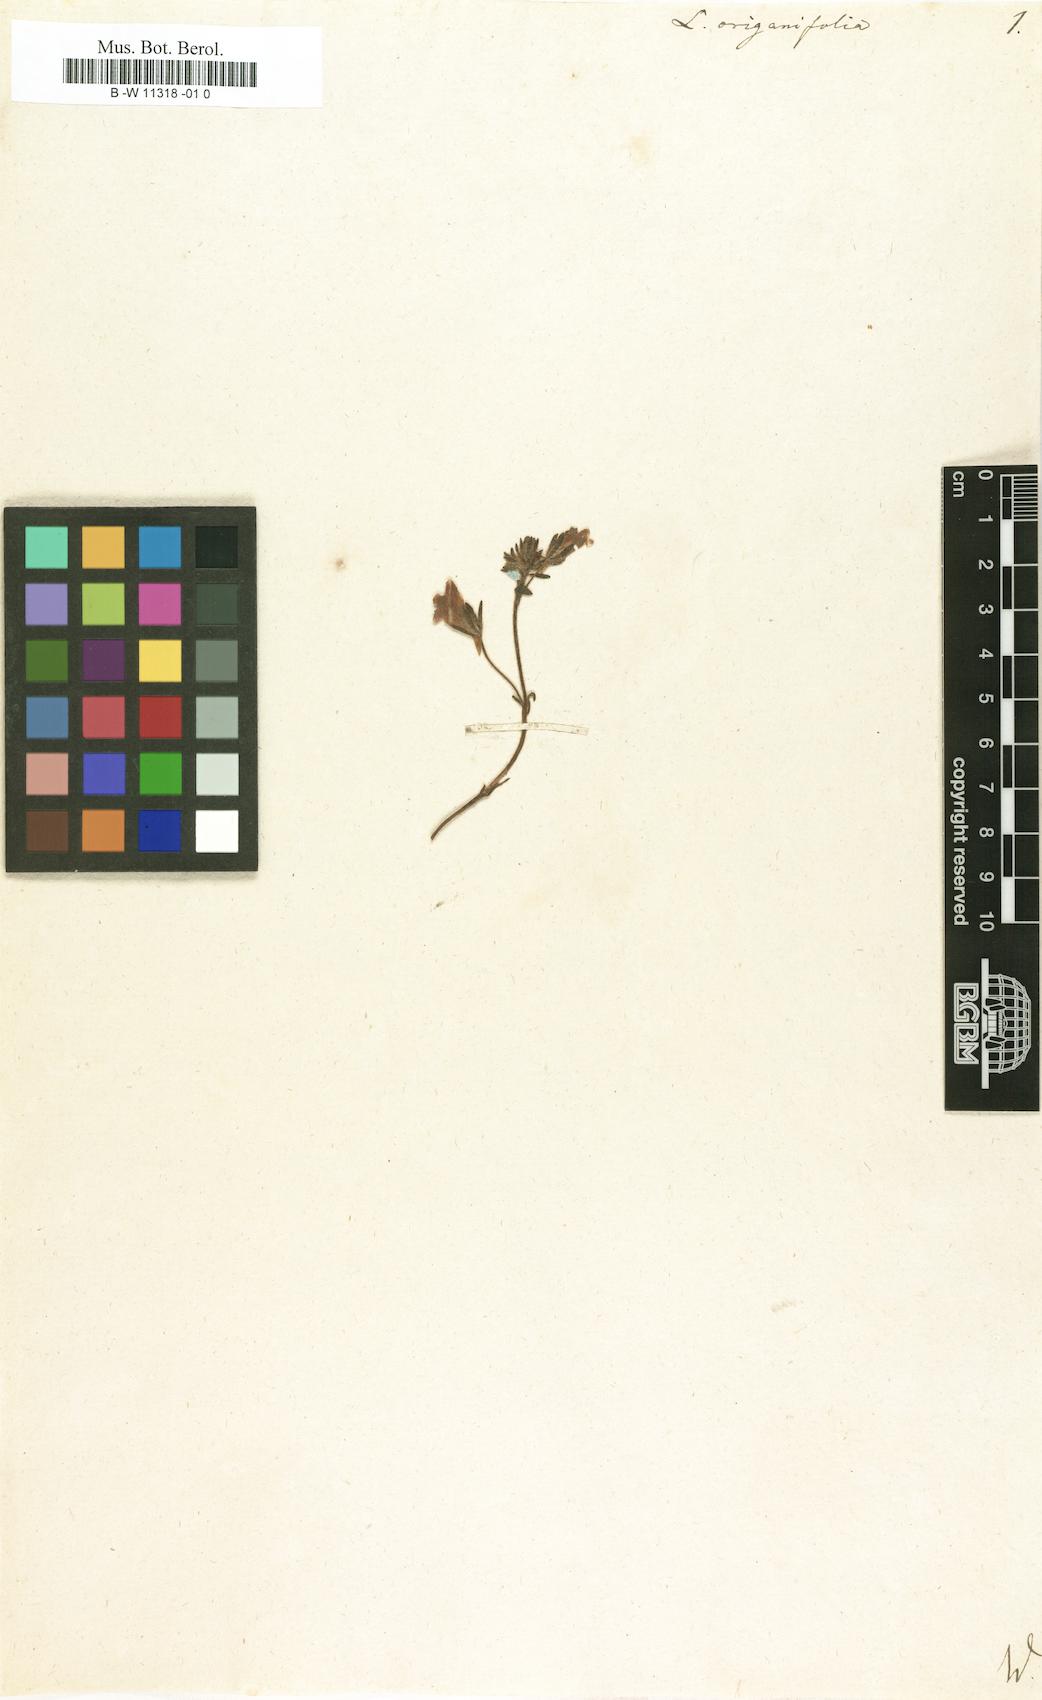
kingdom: Plantae
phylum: Tracheophyta
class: Magnoliopsida
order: Lamiales
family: Plantaginaceae
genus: Chaenorhinum
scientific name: Chaenorhinum origanifolium
